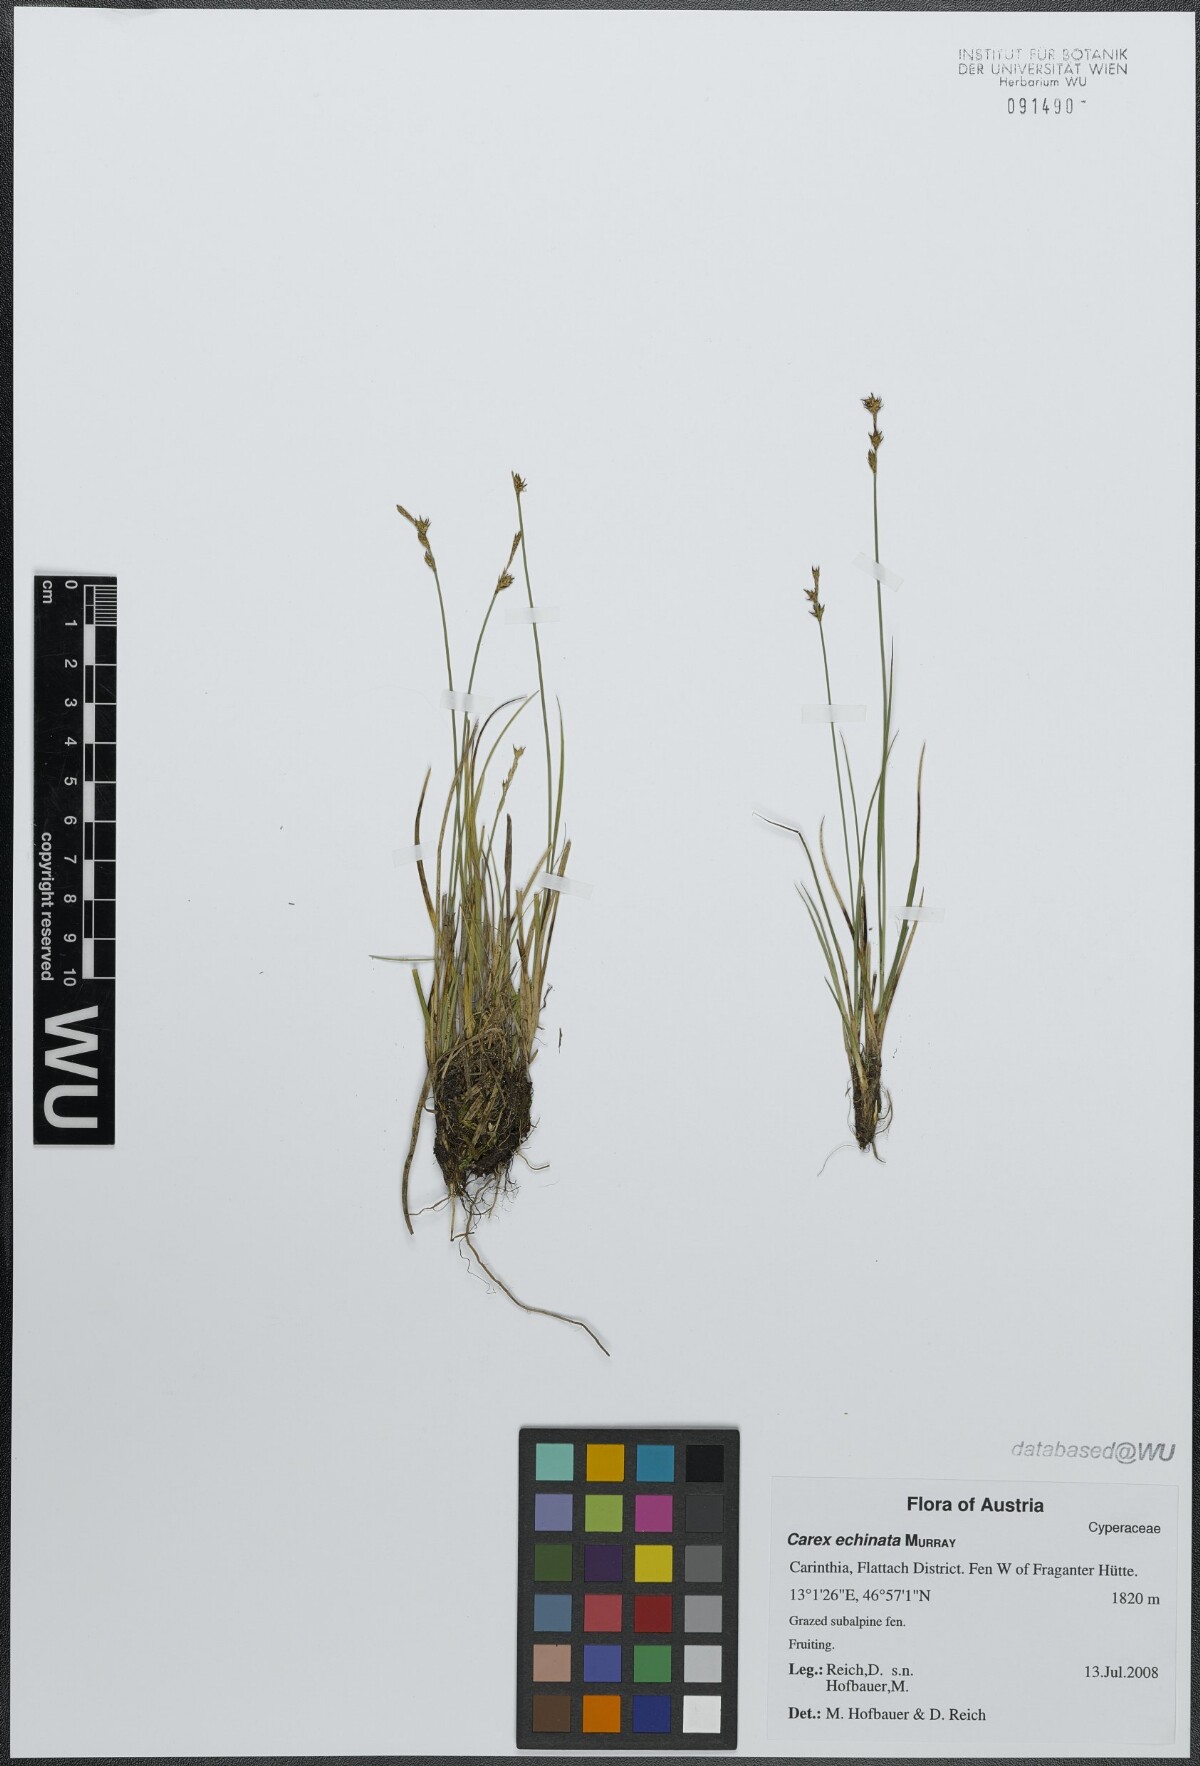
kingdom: Plantae
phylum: Tracheophyta
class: Liliopsida
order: Poales
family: Cyperaceae
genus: Carex
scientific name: Carex echinata
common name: Star sedge
